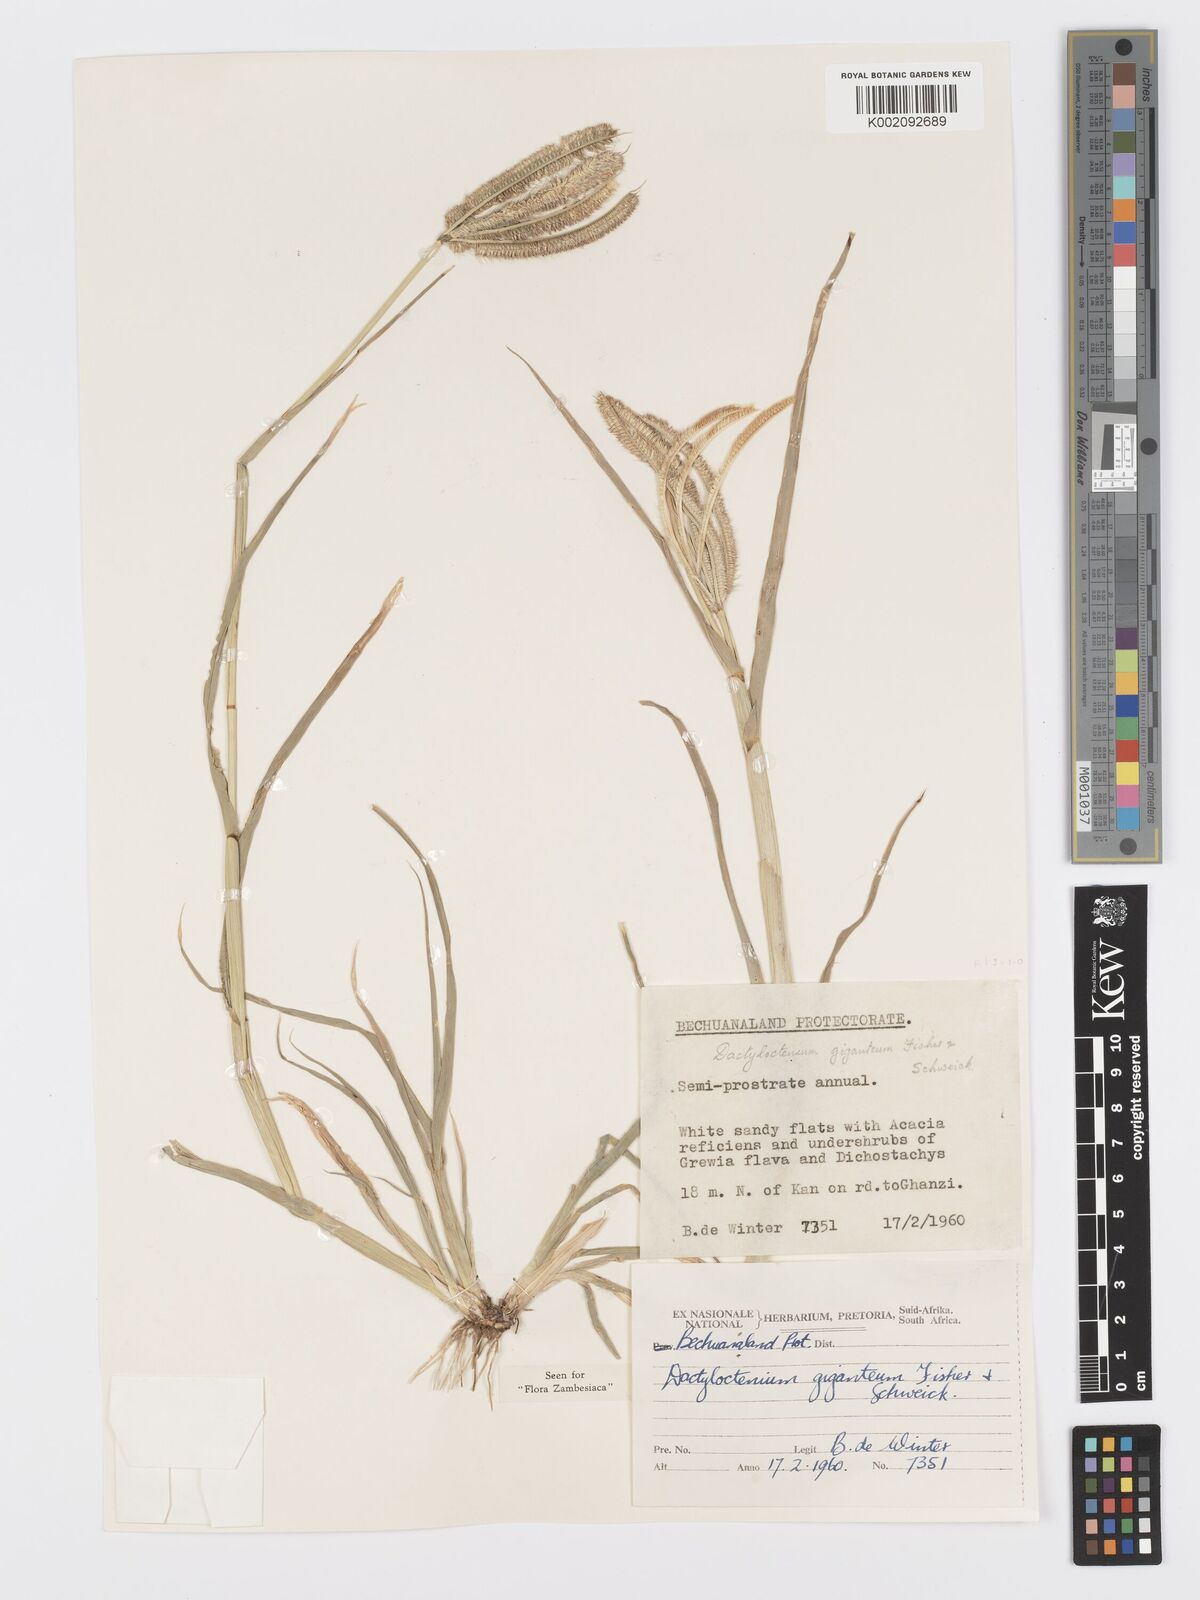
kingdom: Plantae
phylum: Tracheophyta
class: Liliopsida
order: Poales
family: Poaceae
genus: Dactyloctenium
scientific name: Dactyloctenium giganteum
